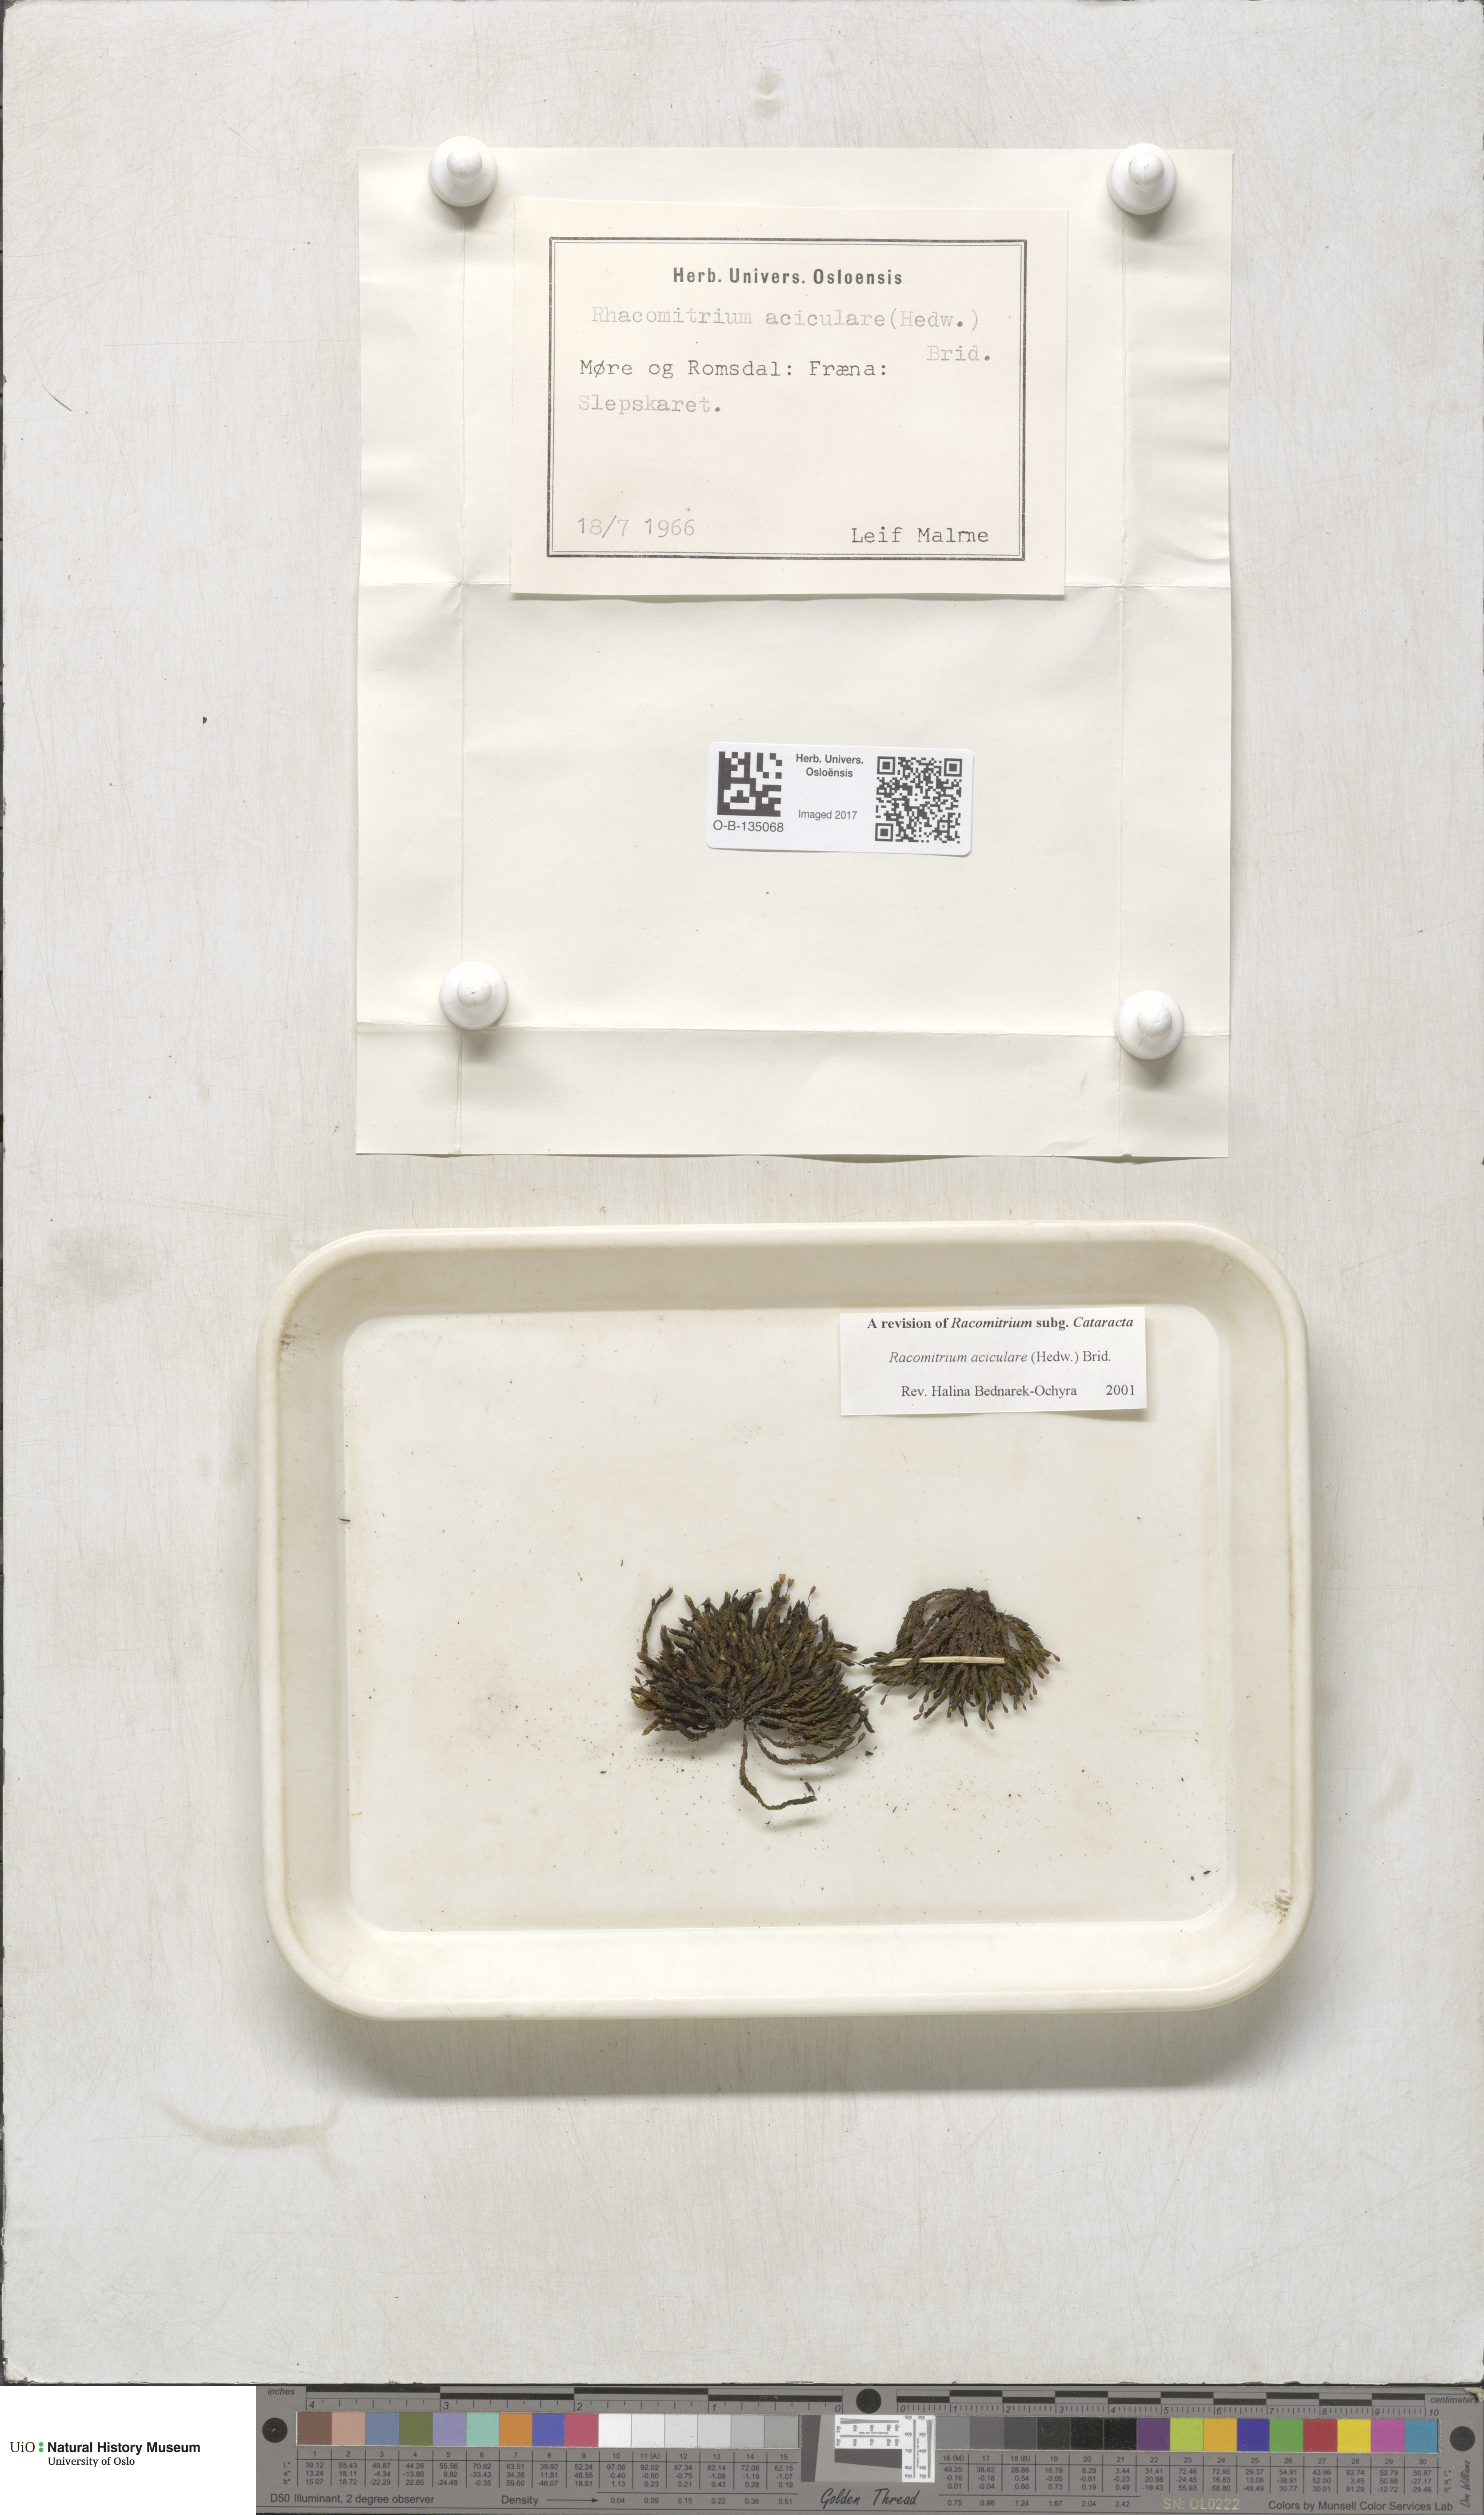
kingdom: Plantae
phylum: Bryophyta
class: Bryopsida
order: Grimmiales
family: Grimmiaceae
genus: Codriophorus
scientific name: Codriophorus acicularis
